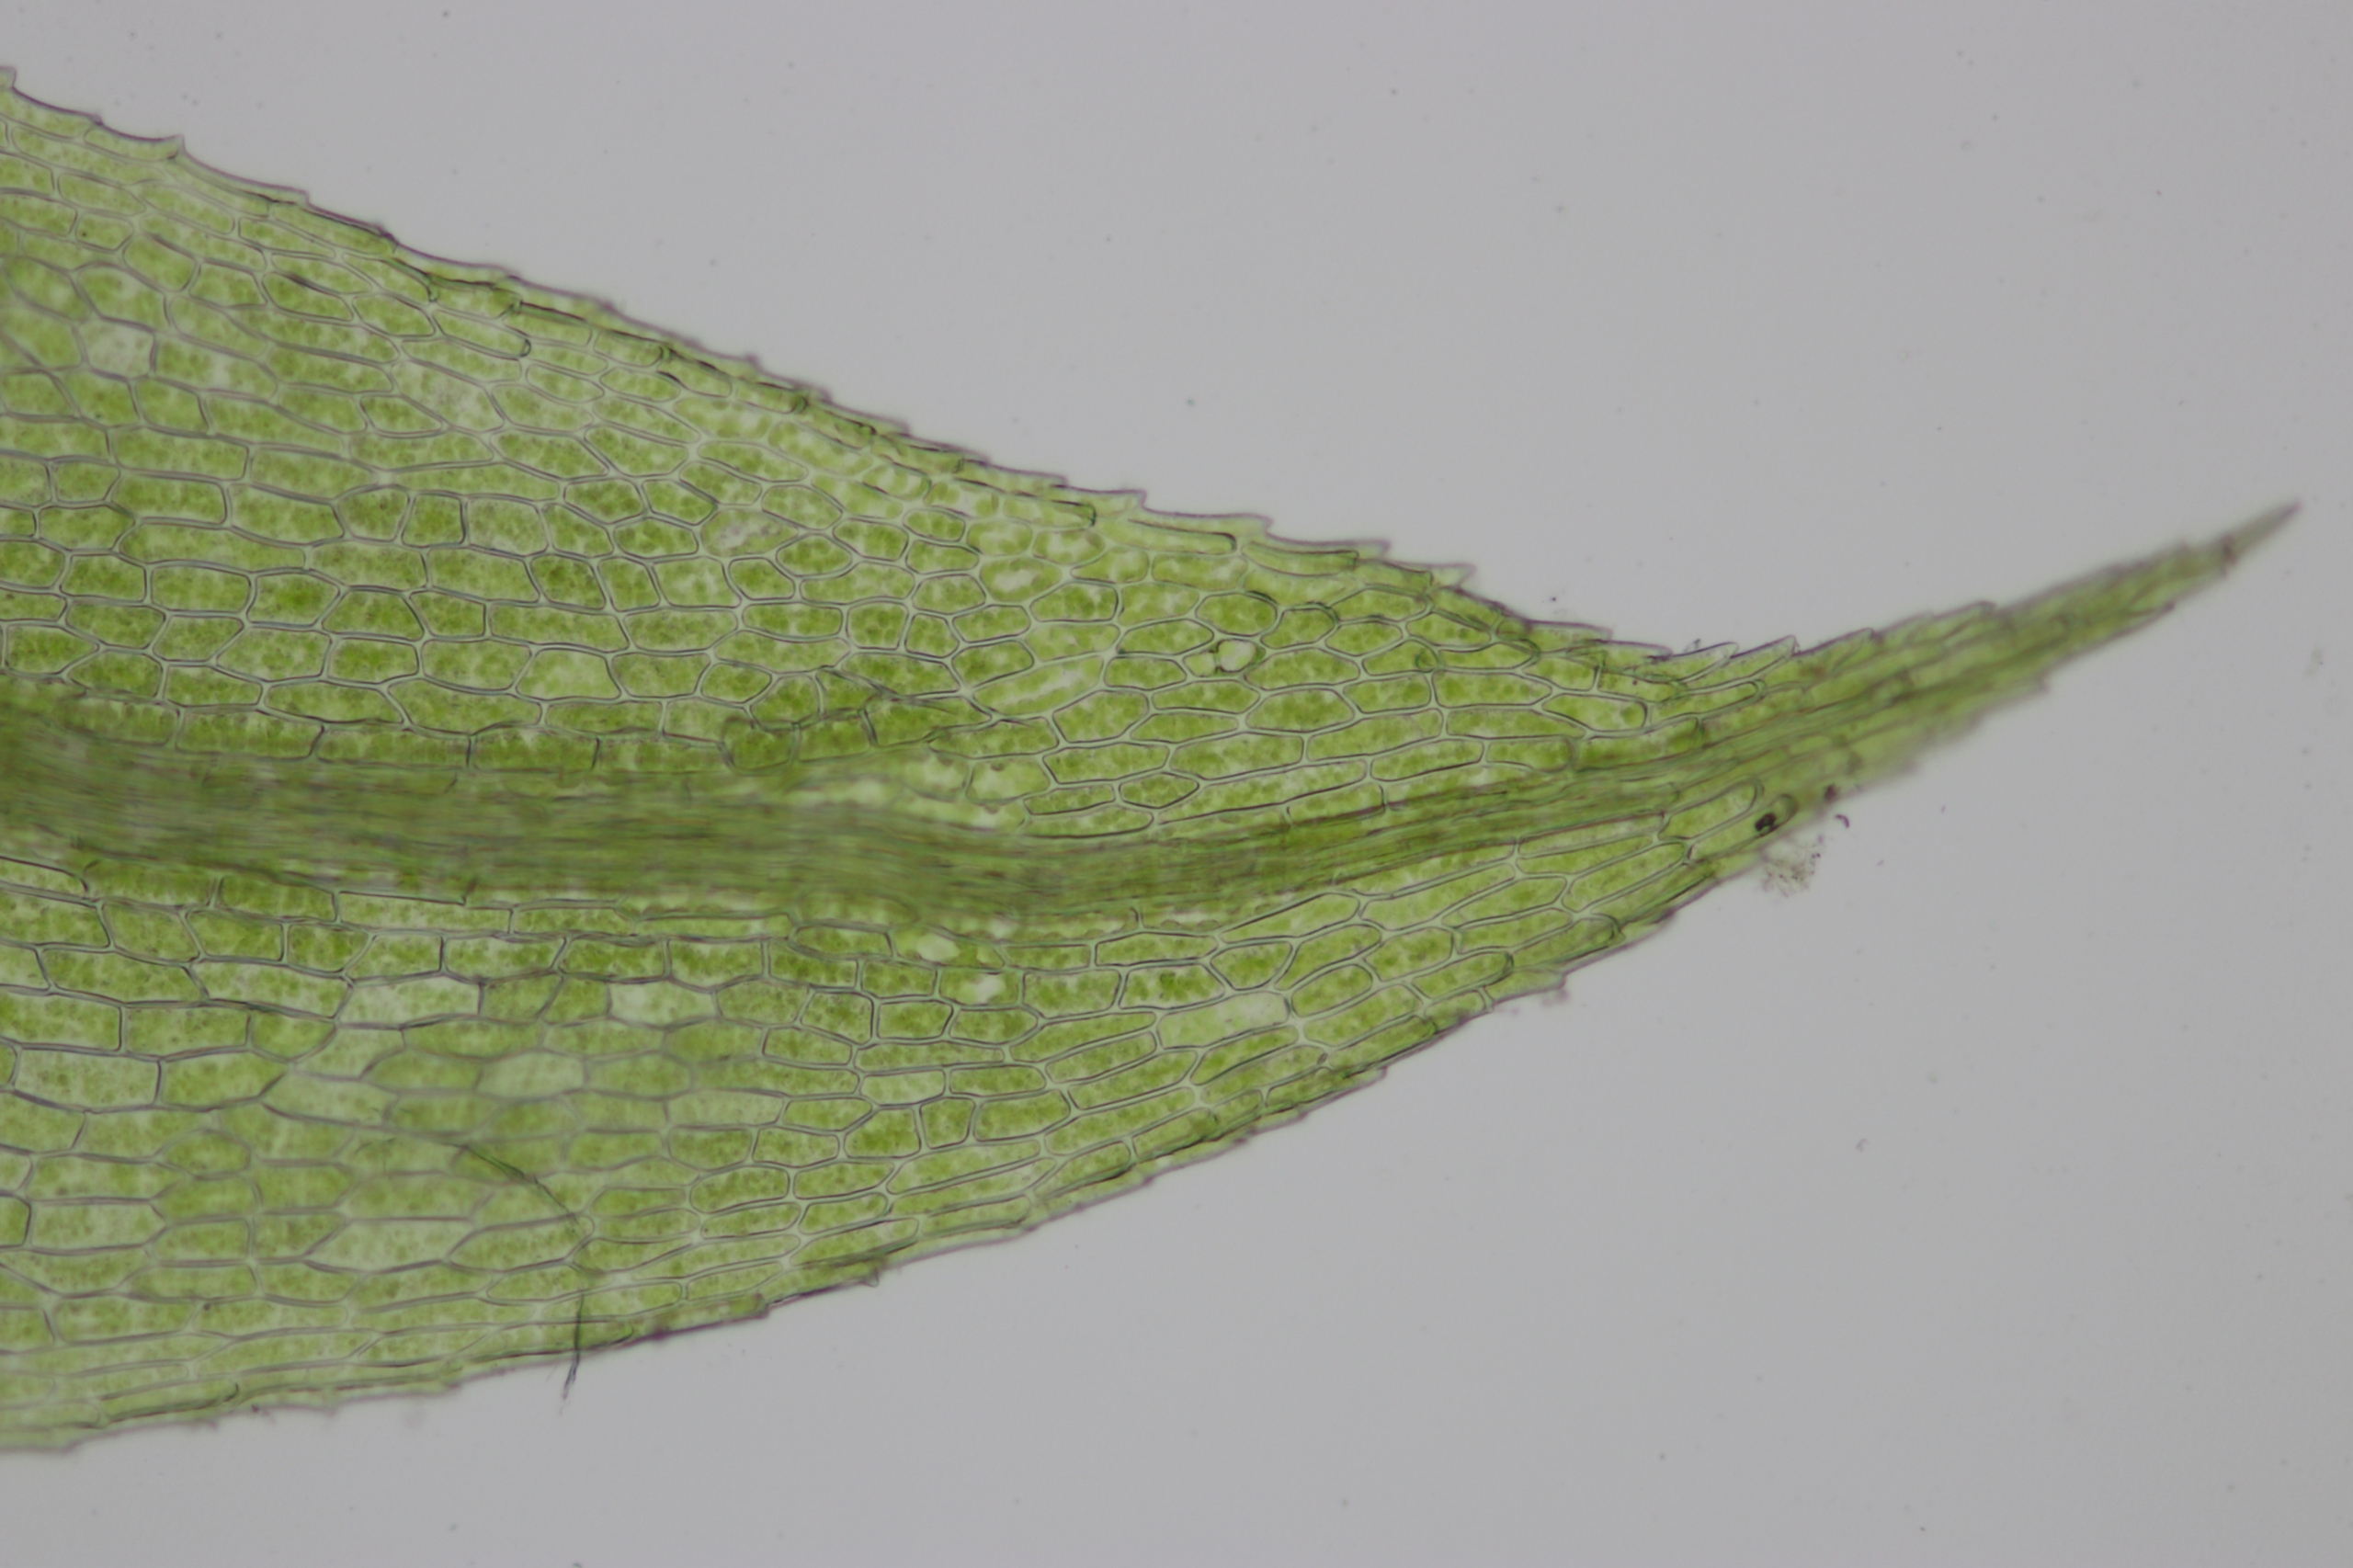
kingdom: Plantae
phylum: Bryophyta
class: Bryopsida
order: Bartramiales
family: Bartramiaceae
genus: Philonotis
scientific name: Philonotis caespitosa
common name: Fladbladet vandtuemos
